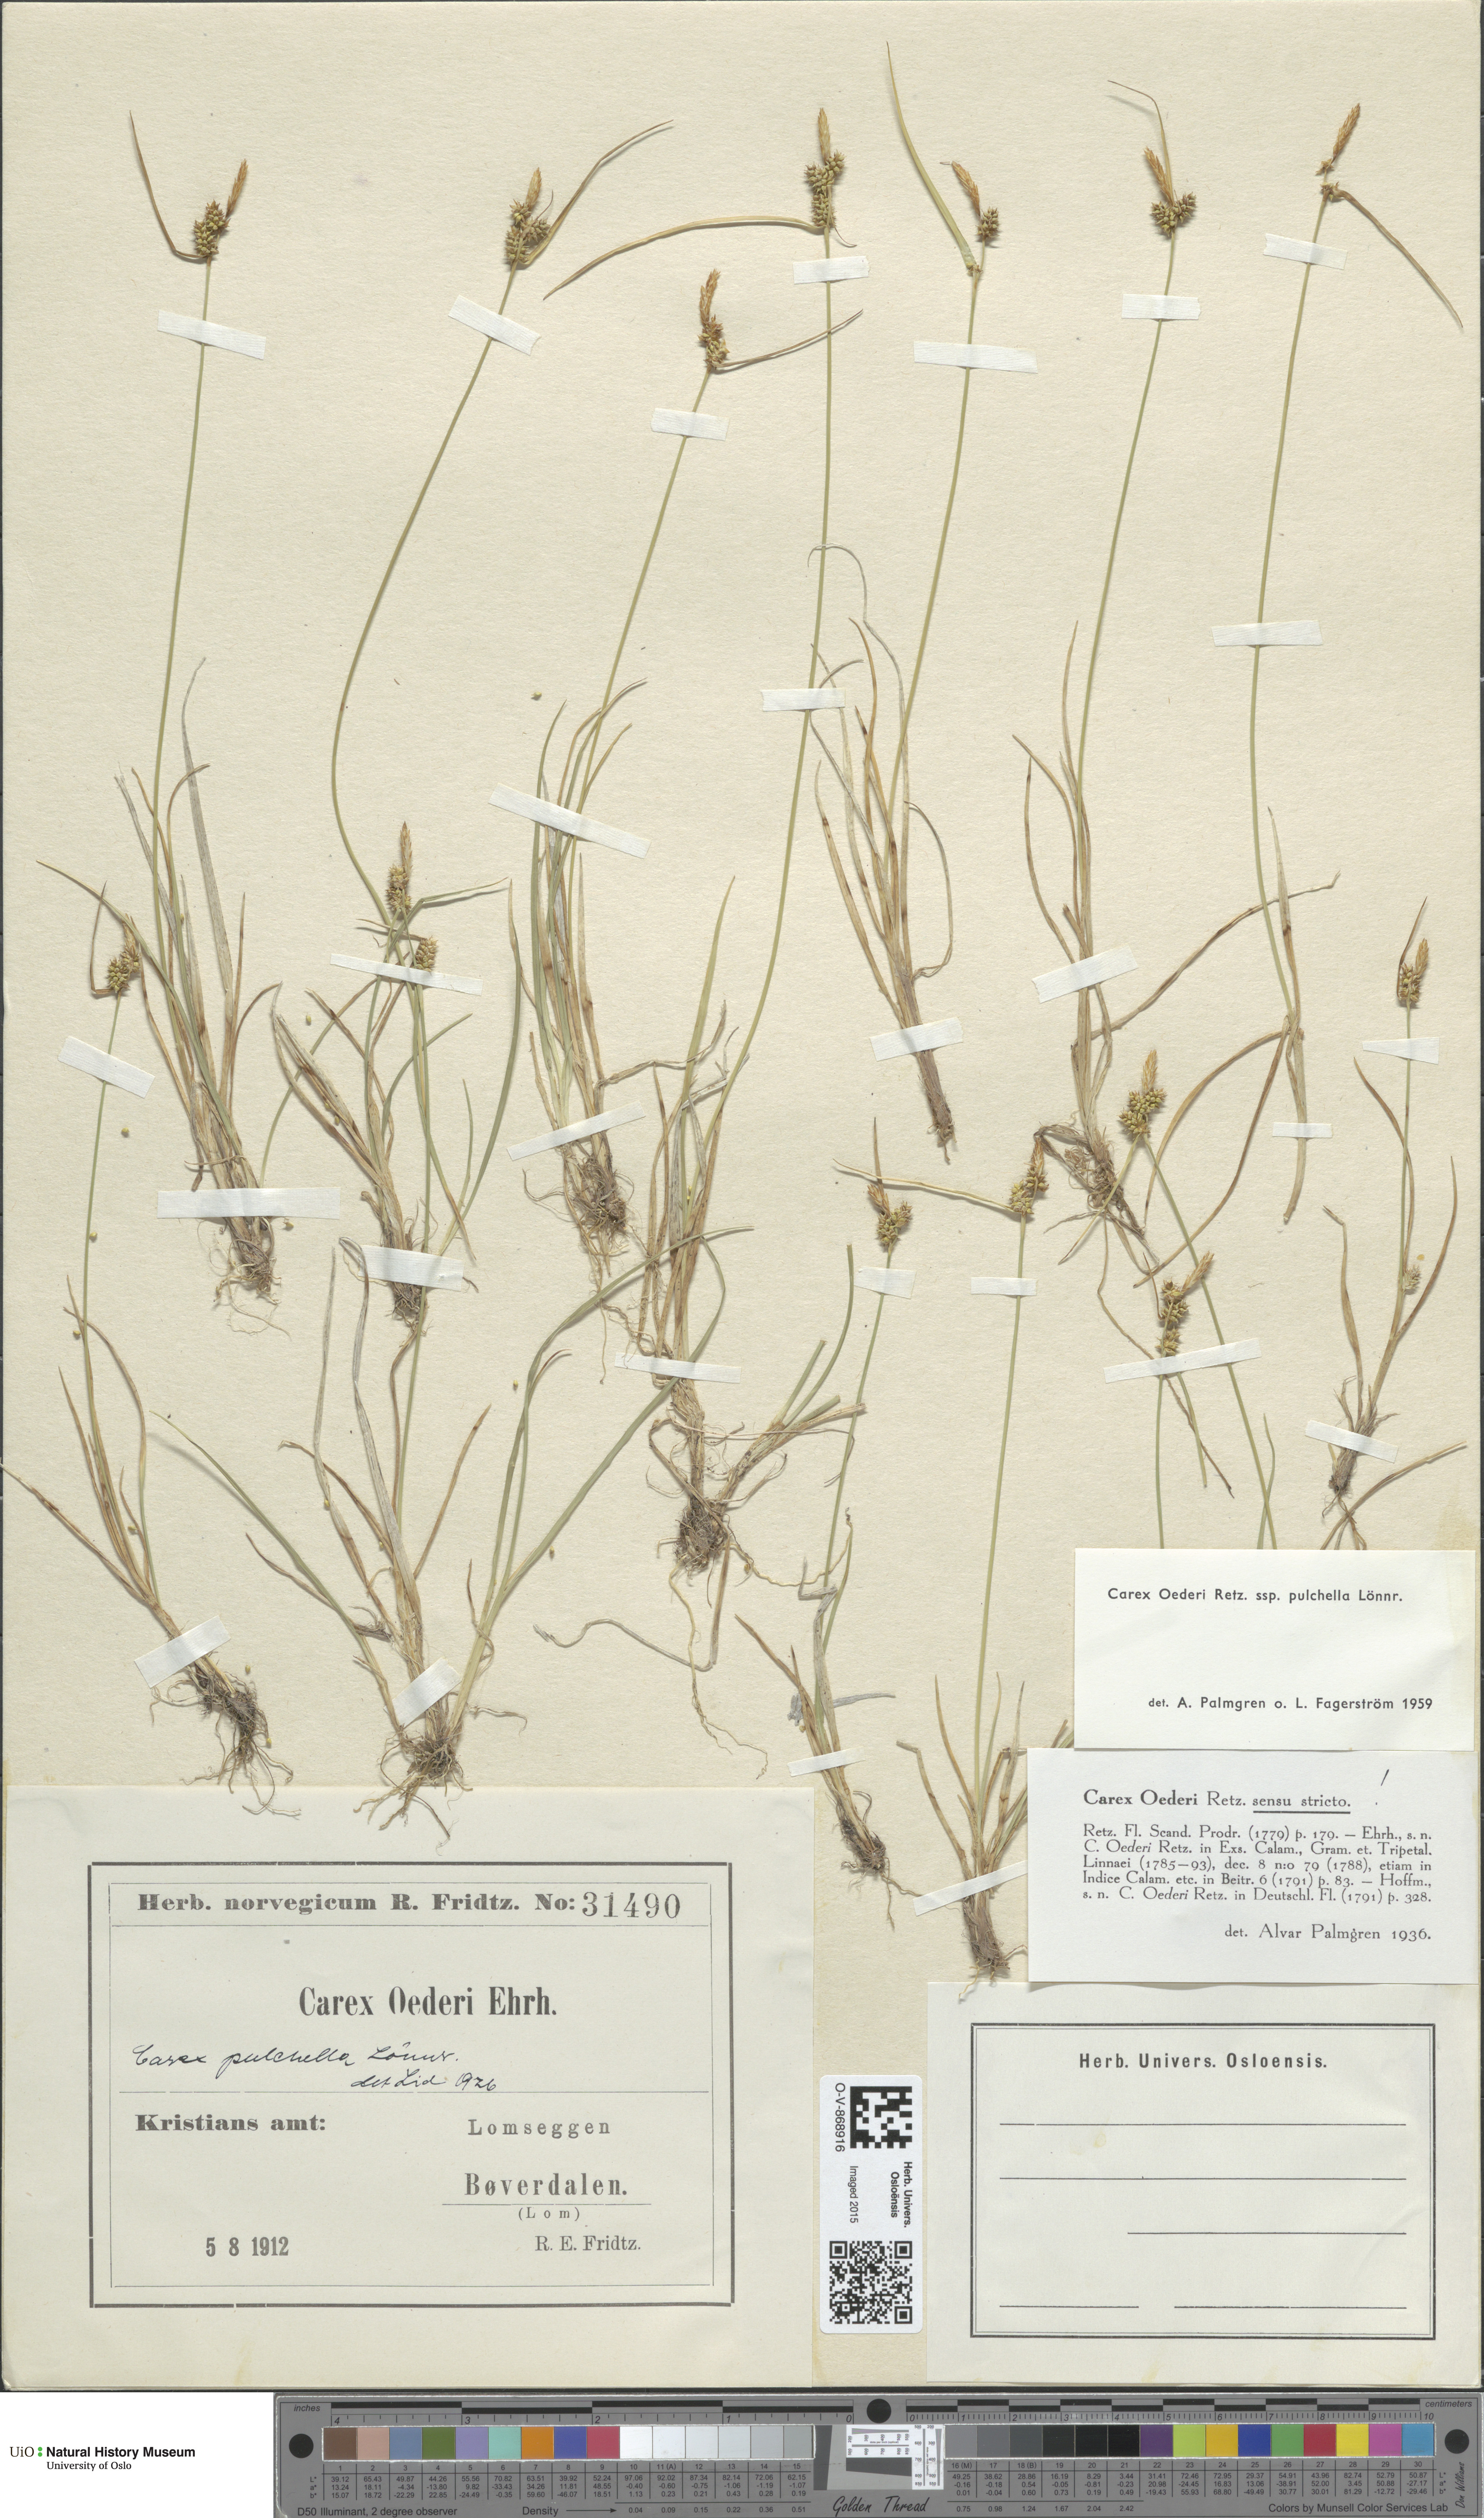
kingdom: Plantae
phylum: Tracheophyta
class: Liliopsida
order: Poales
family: Cyperaceae
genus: Carex
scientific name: Carex oederi
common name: Common & small-fruited yellow-sedge
